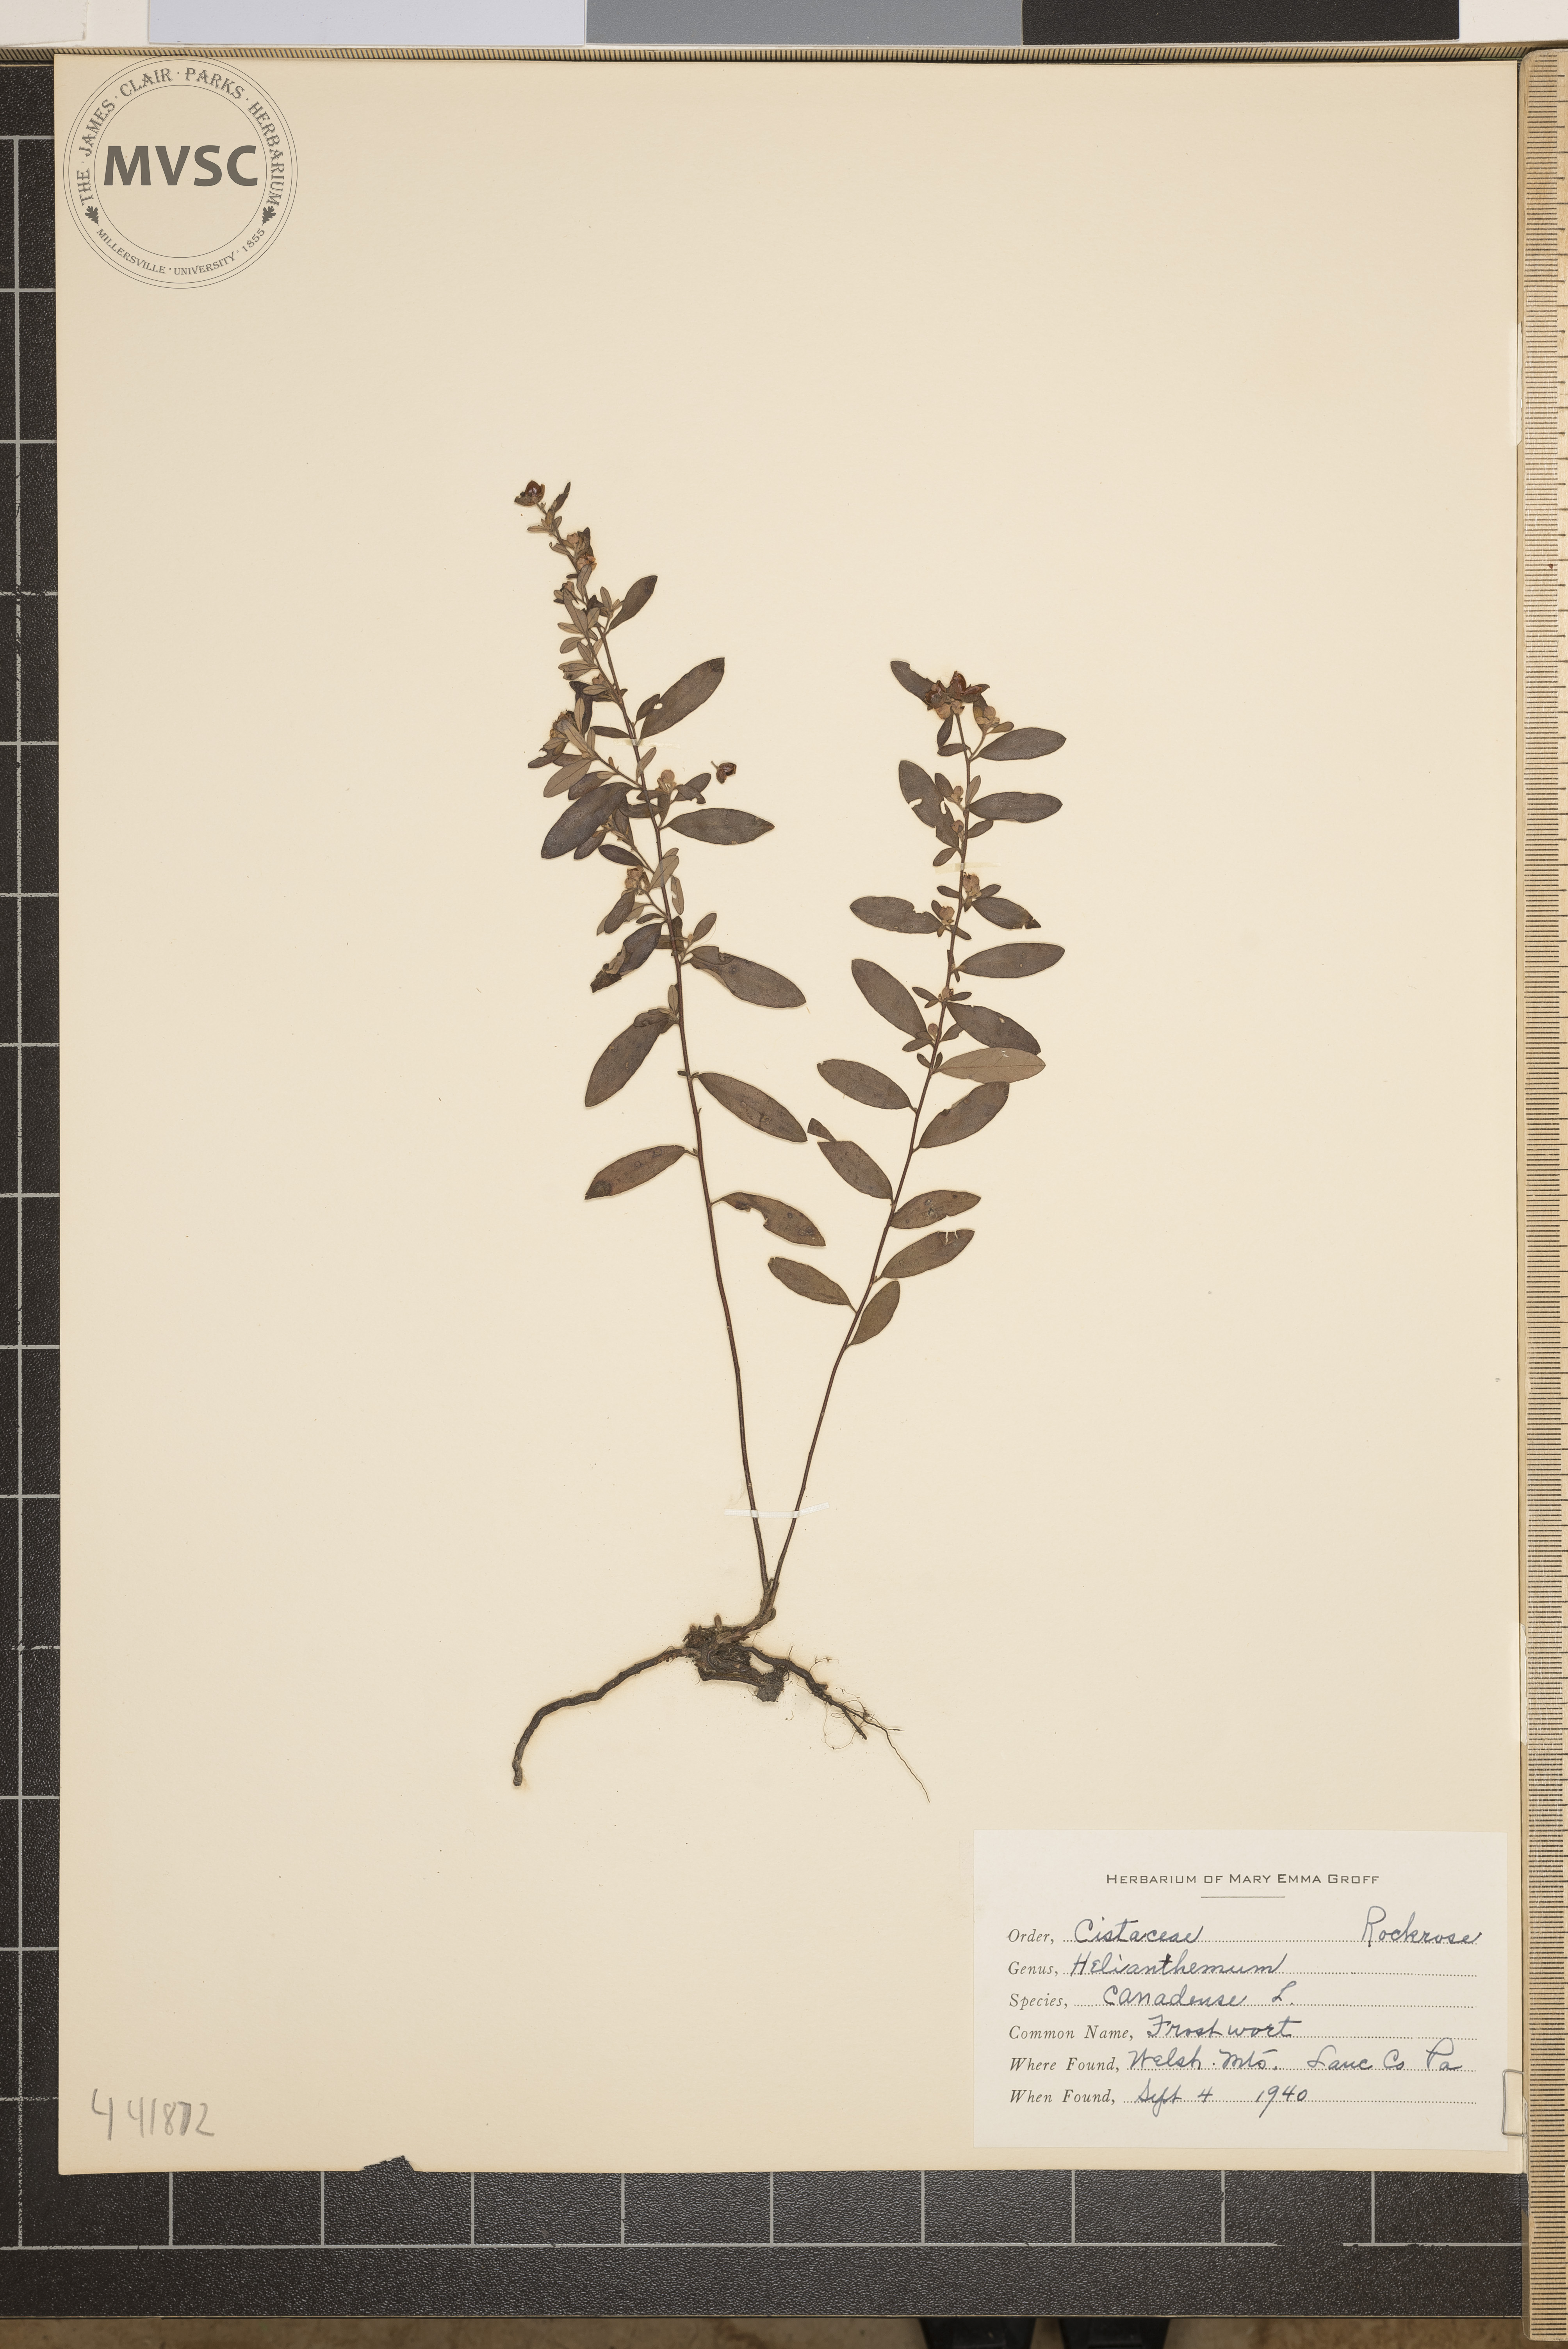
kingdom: Plantae
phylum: Tracheophyta
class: Magnoliopsida
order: Malvales
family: Cistaceae
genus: Crocanthemum
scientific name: Crocanthemum canadense
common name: Frostwort
